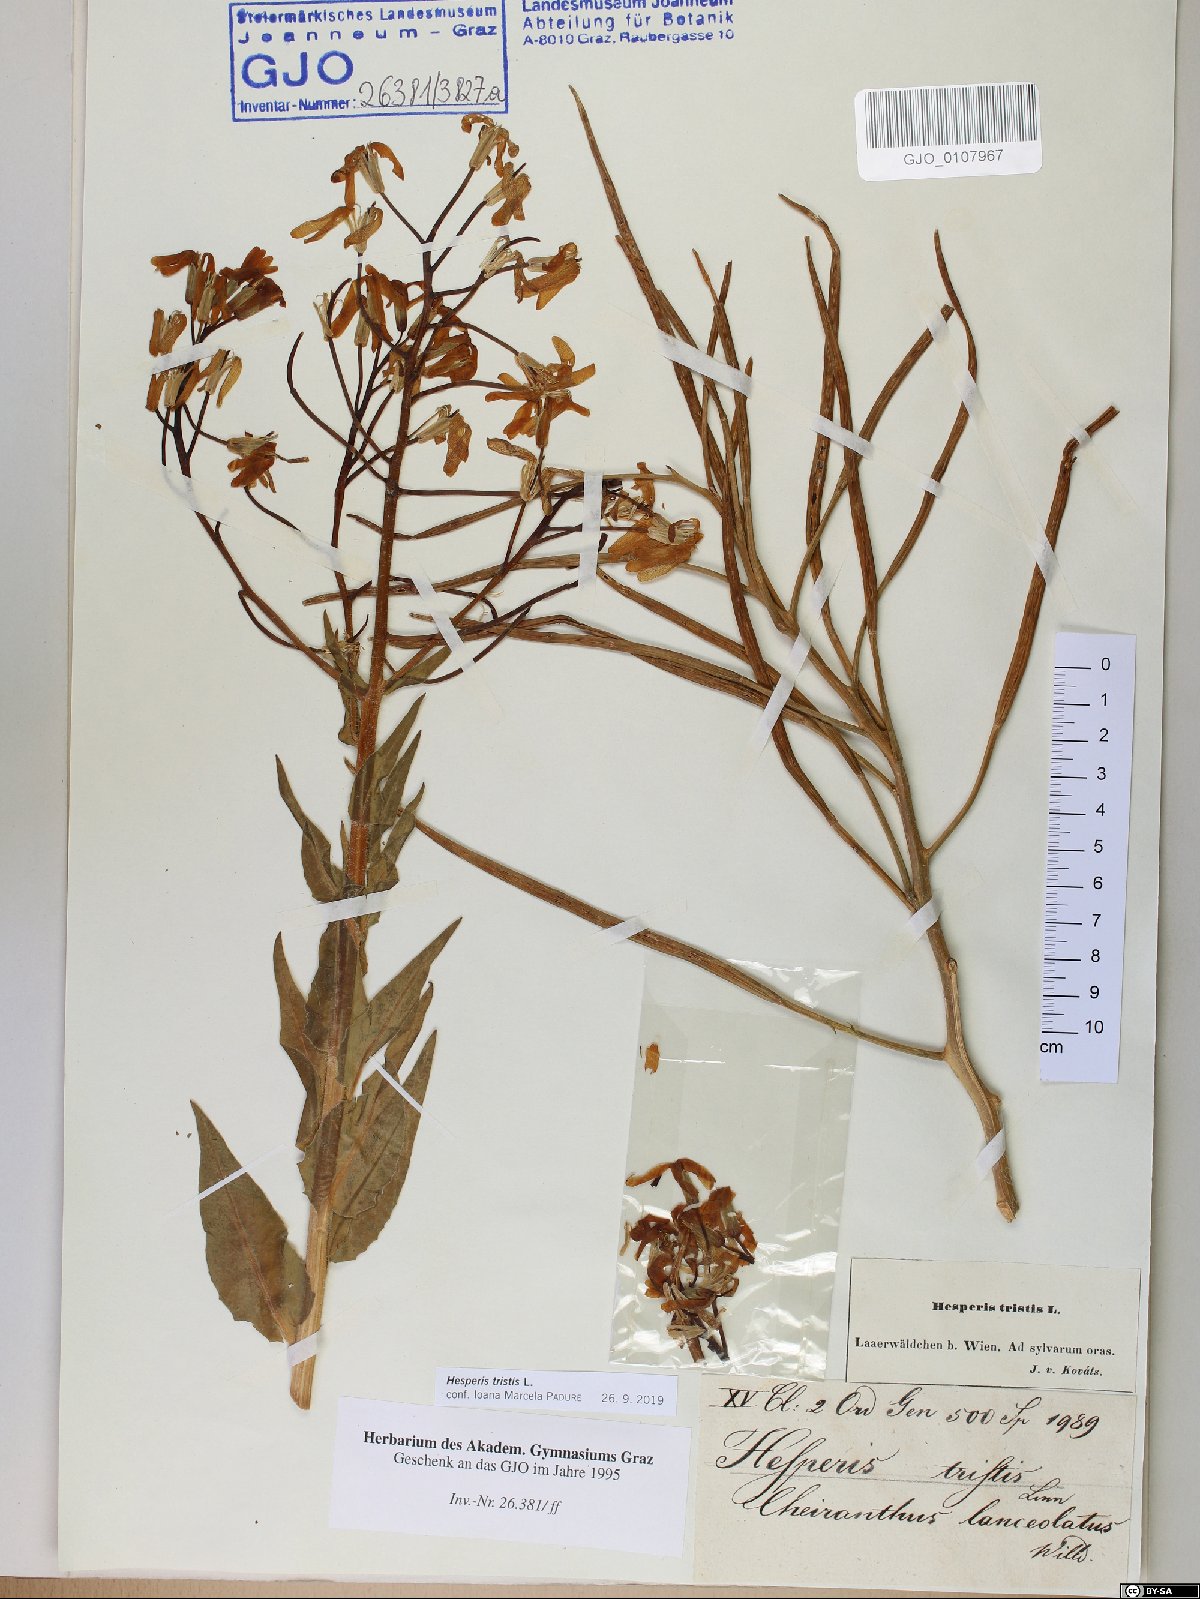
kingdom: Plantae
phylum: Tracheophyta
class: Magnoliopsida
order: Brassicales
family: Brassicaceae
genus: Hesperis
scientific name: Hesperis tristis
